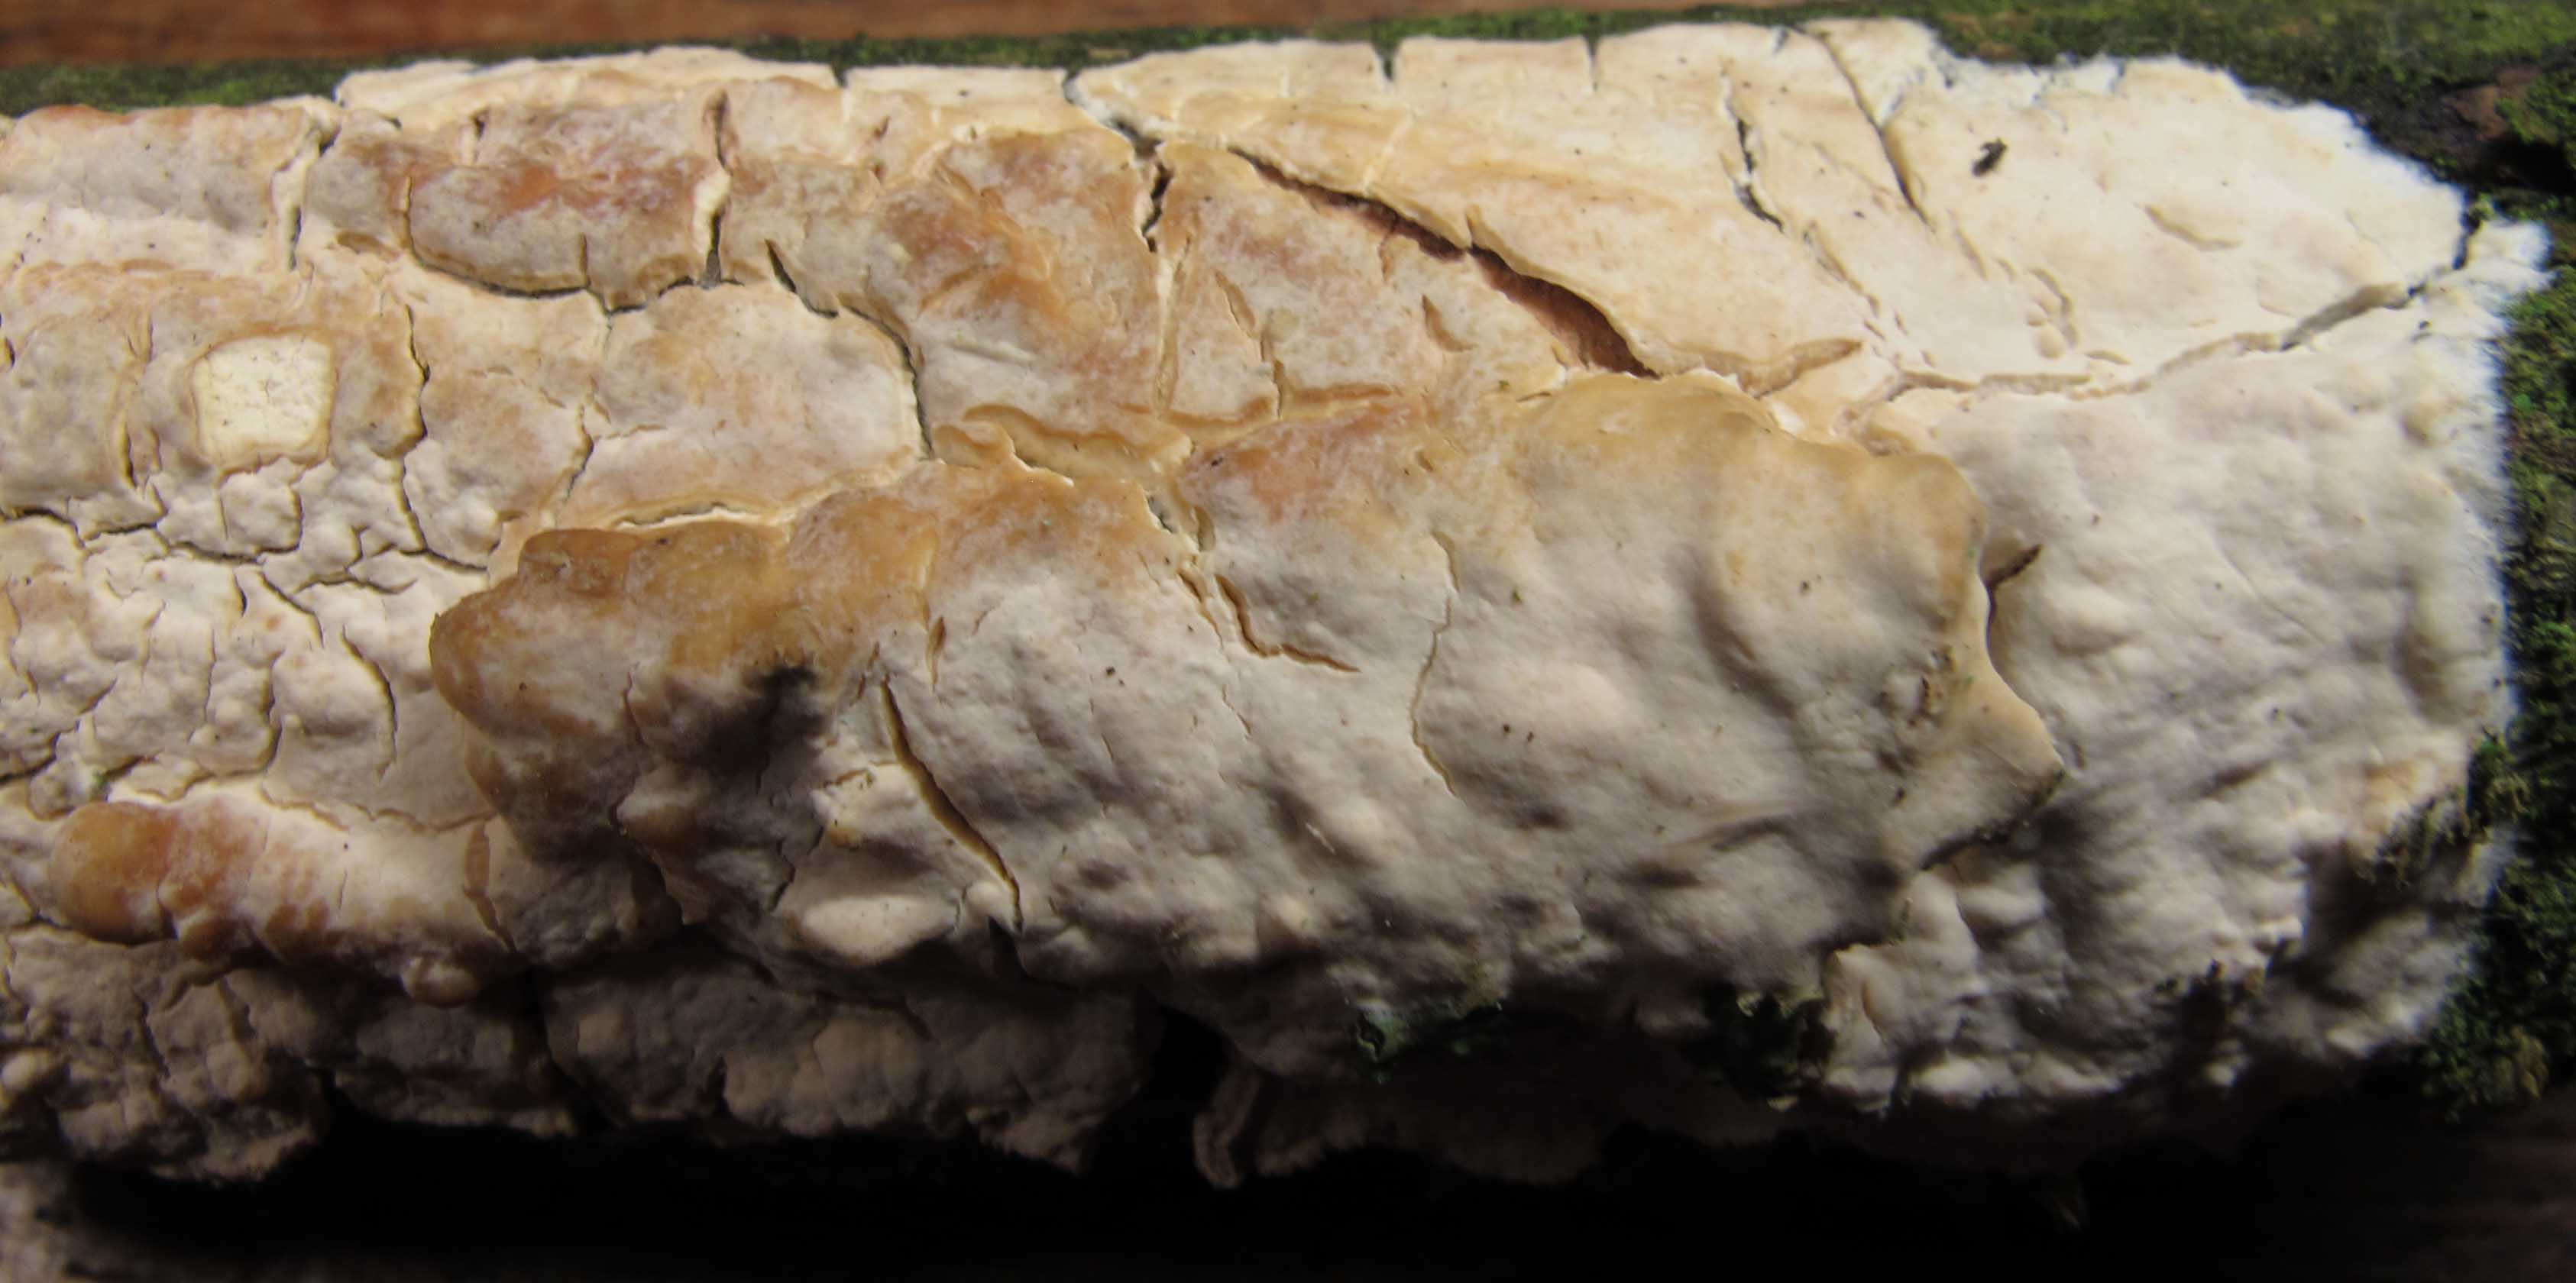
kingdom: Fungi
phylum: Basidiomycota
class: Agaricomycetes
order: Agaricales
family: Cyphellaceae
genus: Granulobasidium
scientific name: Granulobasidium vellereum
